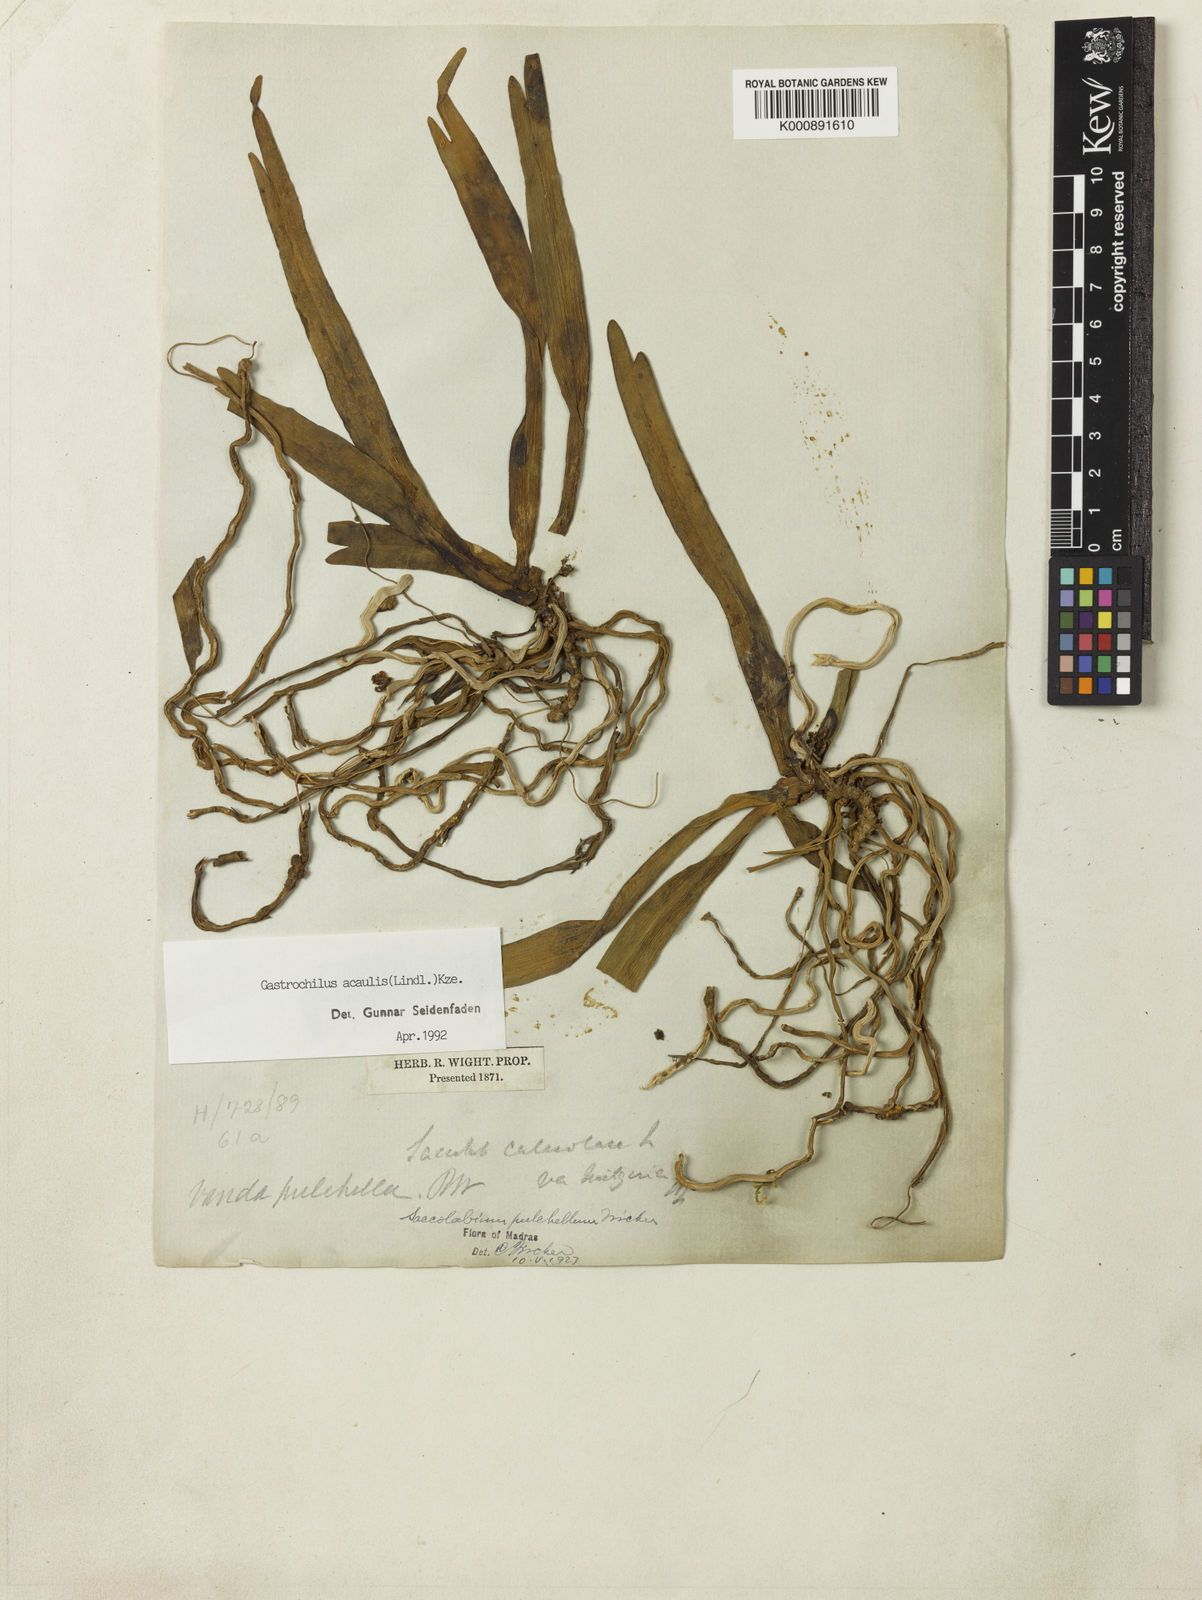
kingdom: Plantae
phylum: Tracheophyta
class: Liliopsida
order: Asparagales
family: Orchidaceae
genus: Gastrochilus
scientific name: Gastrochilus acaulis
